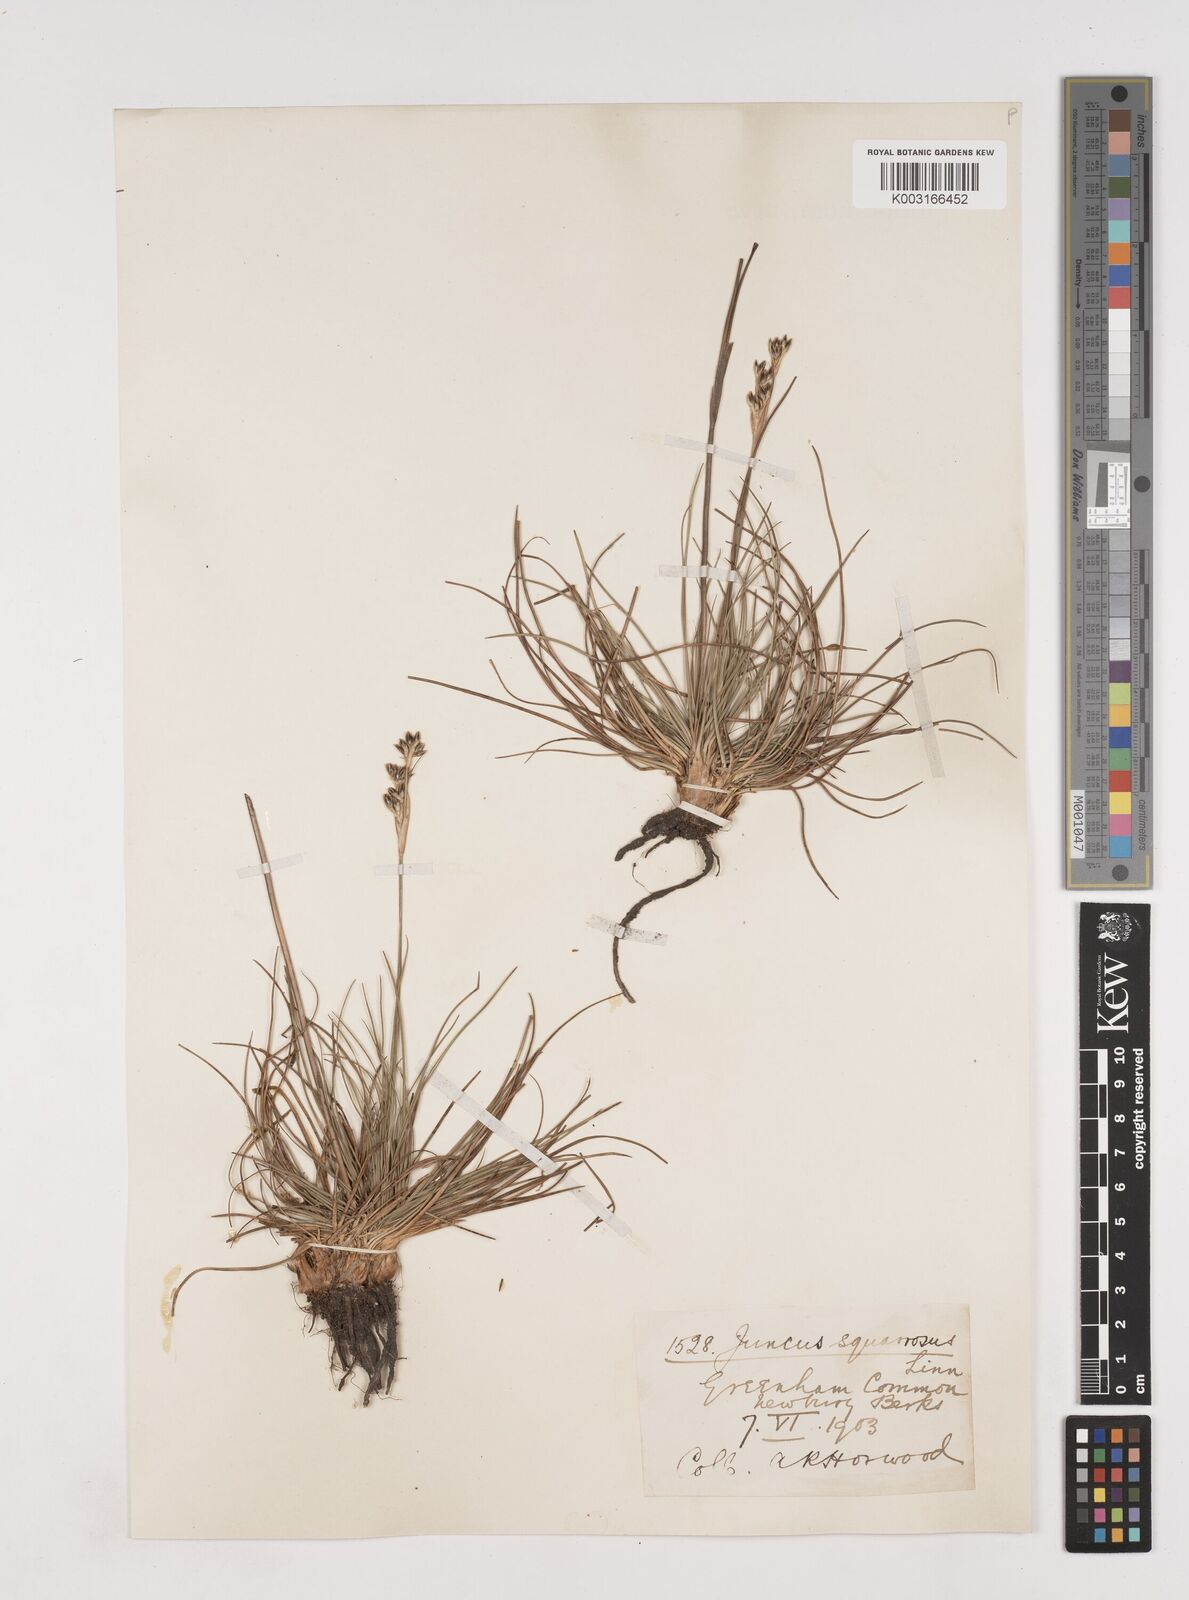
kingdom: Plantae
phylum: Tracheophyta
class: Liliopsida
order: Poales
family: Juncaceae
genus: Juncus
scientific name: Juncus squarrosus
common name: Heath rush
